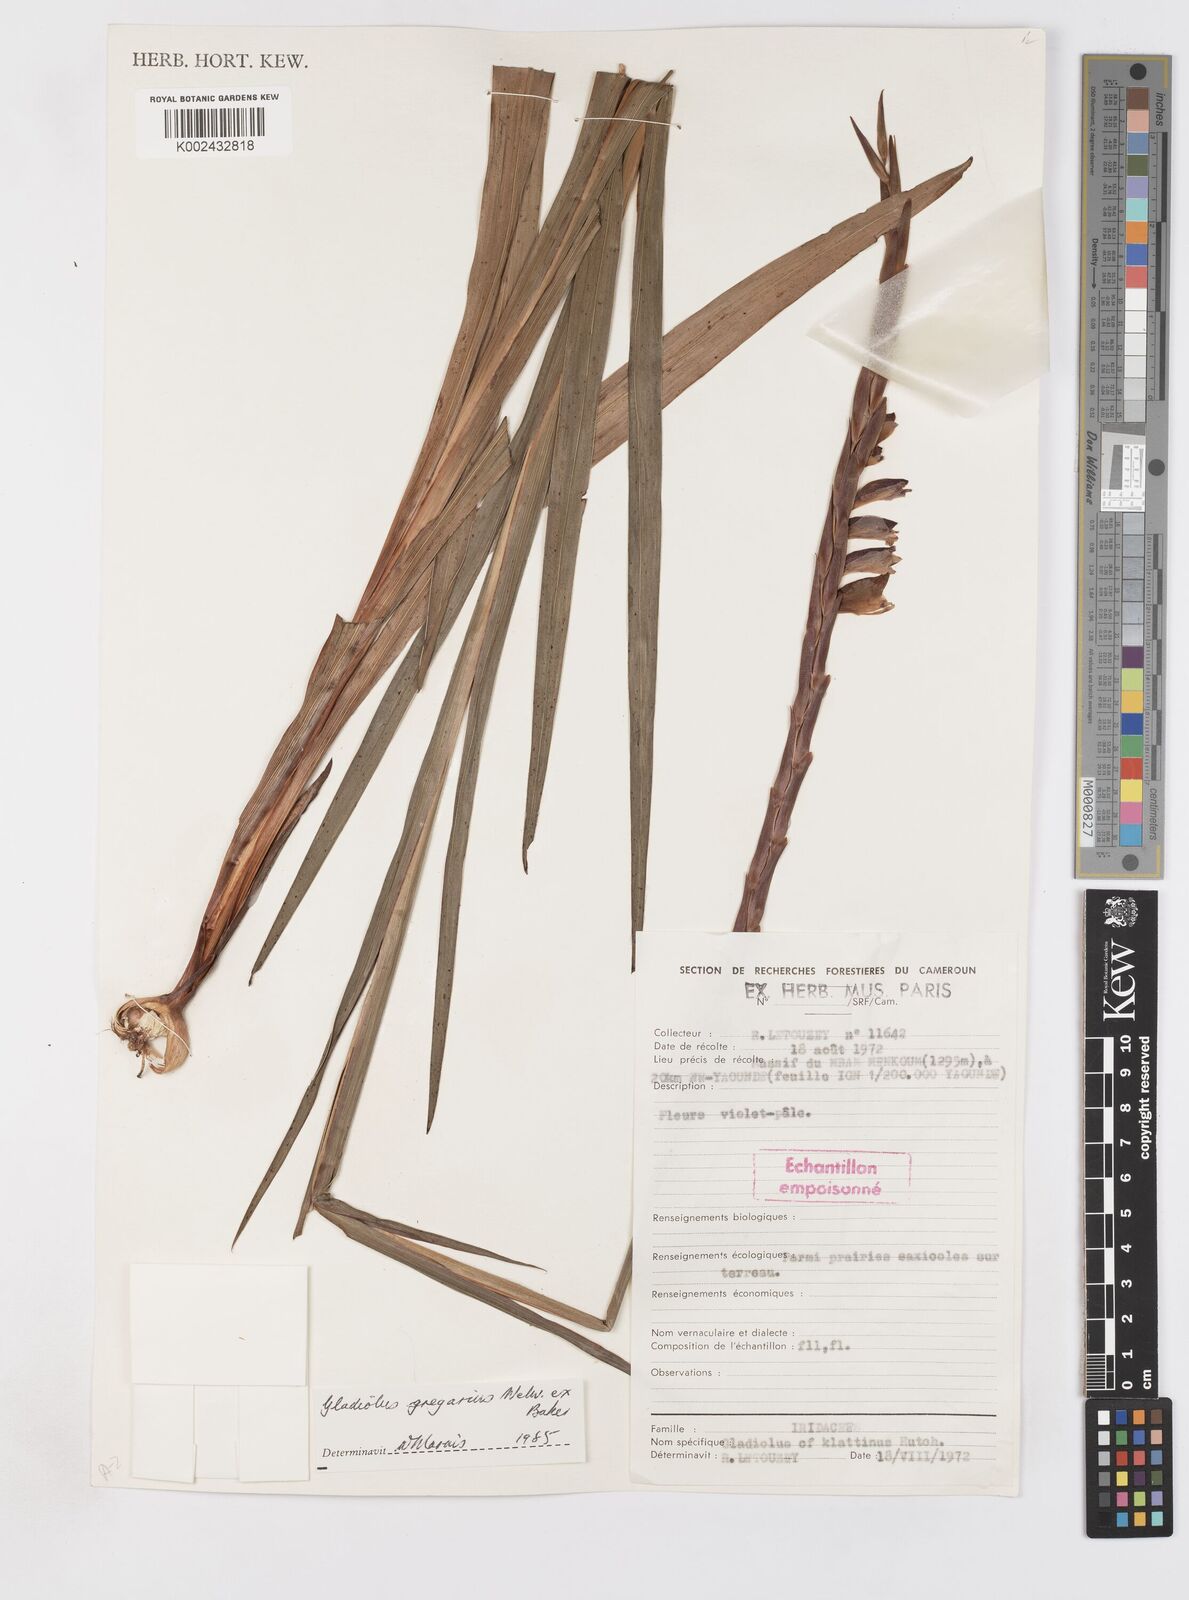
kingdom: Plantae
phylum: Tracheophyta
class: Liliopsida
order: Asparagales
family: Iridaceae
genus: Gladiolus
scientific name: Gladiolus gregarius
